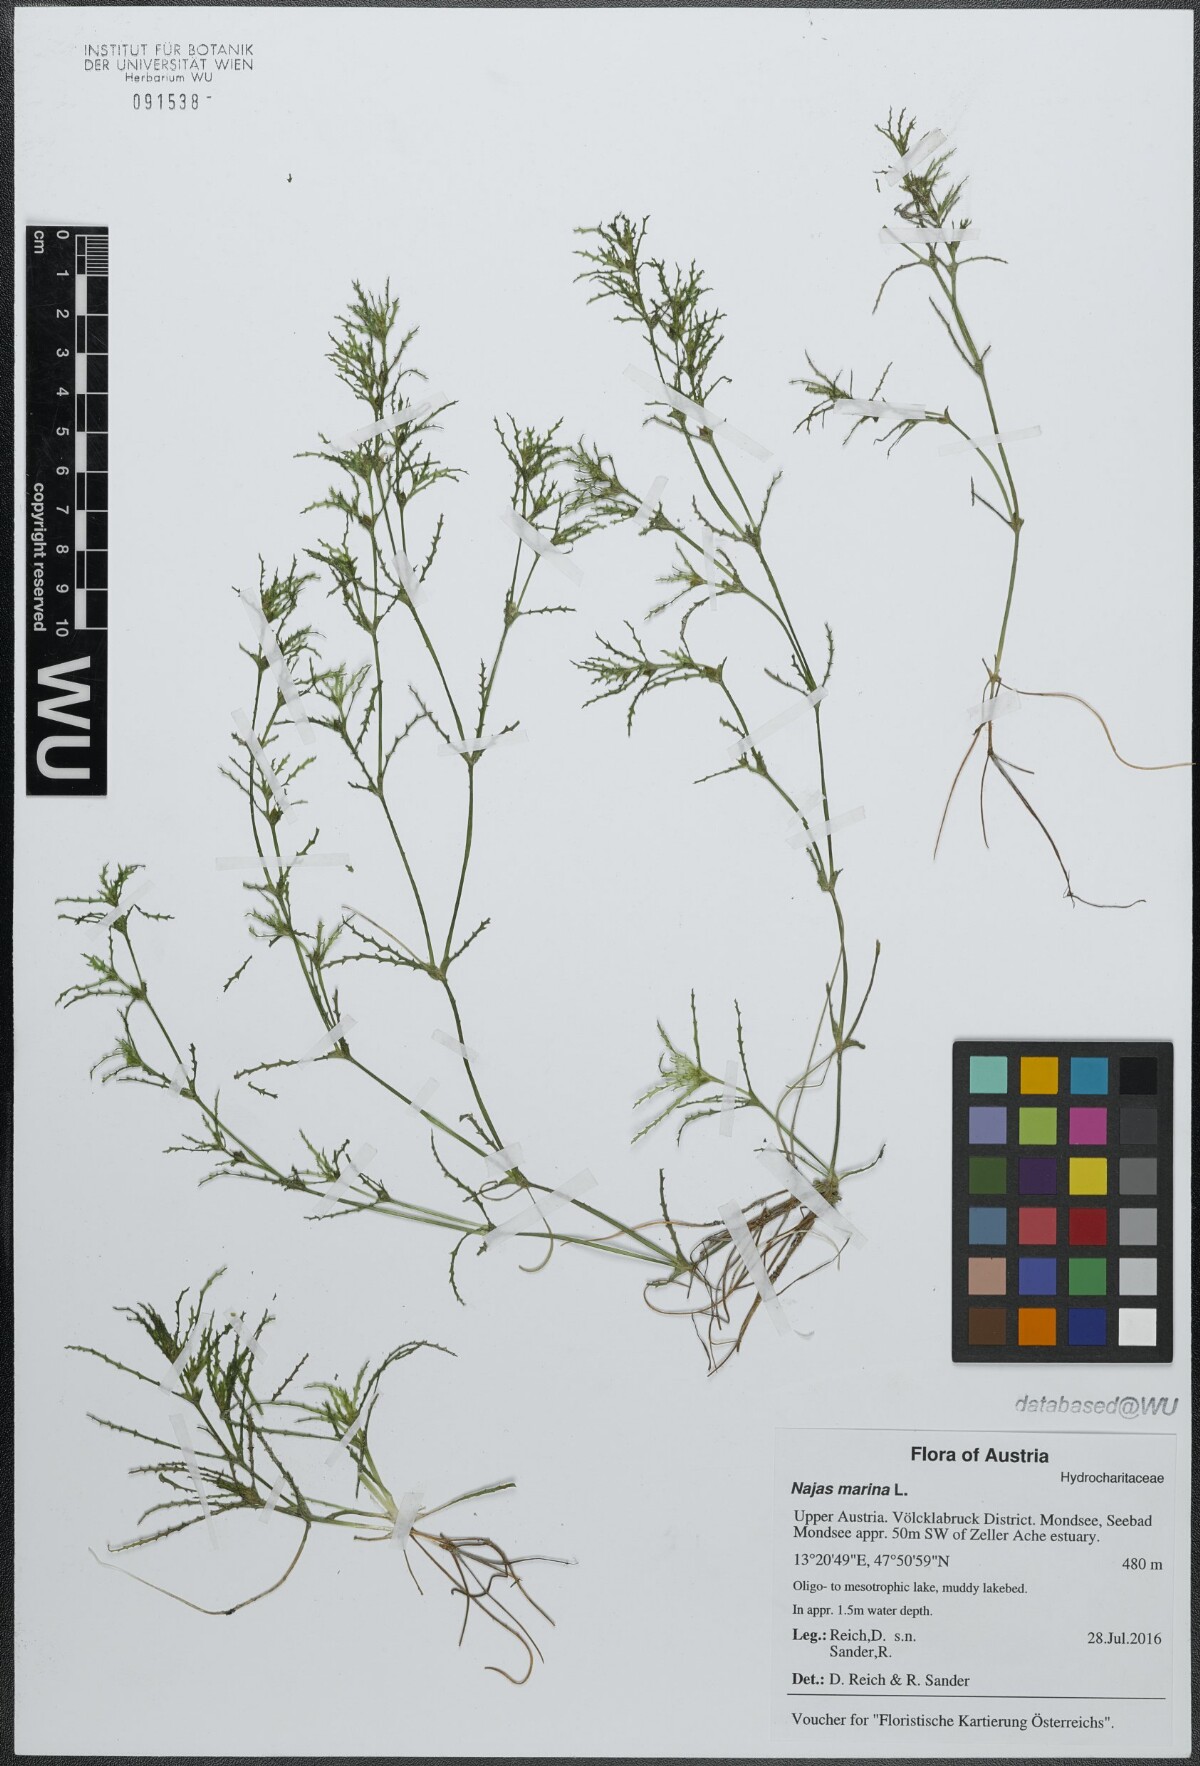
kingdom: Plantae
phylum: Tracheophyta
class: Liliopsida
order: Alismatales
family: Hydrocharitaceae
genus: Najas
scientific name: Najas marina
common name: Holly-leaved naiad
